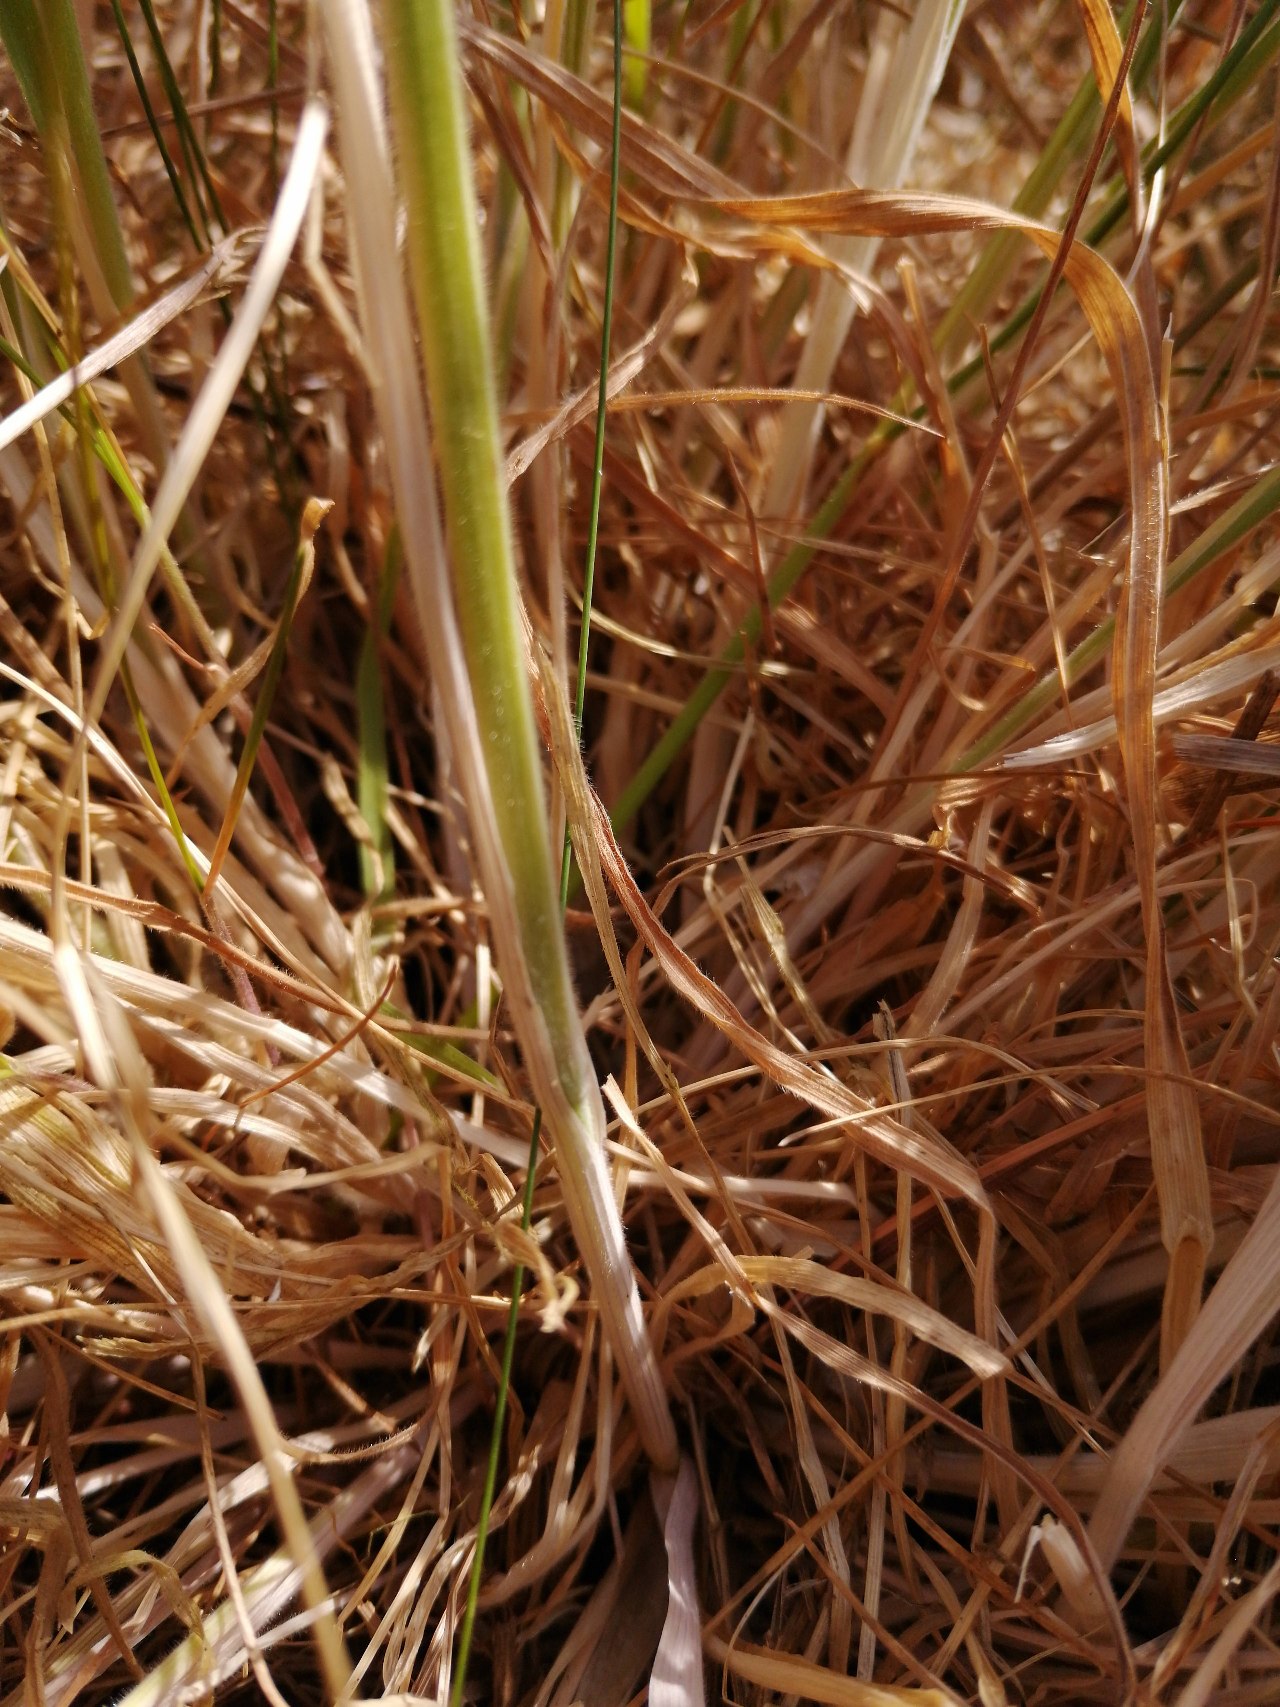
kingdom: Plantae
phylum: Tracheophyta
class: Liliopsida
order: Poales
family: Poaceae
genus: Holcus
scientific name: Holcus lanatus
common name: Fløjlsgræs
